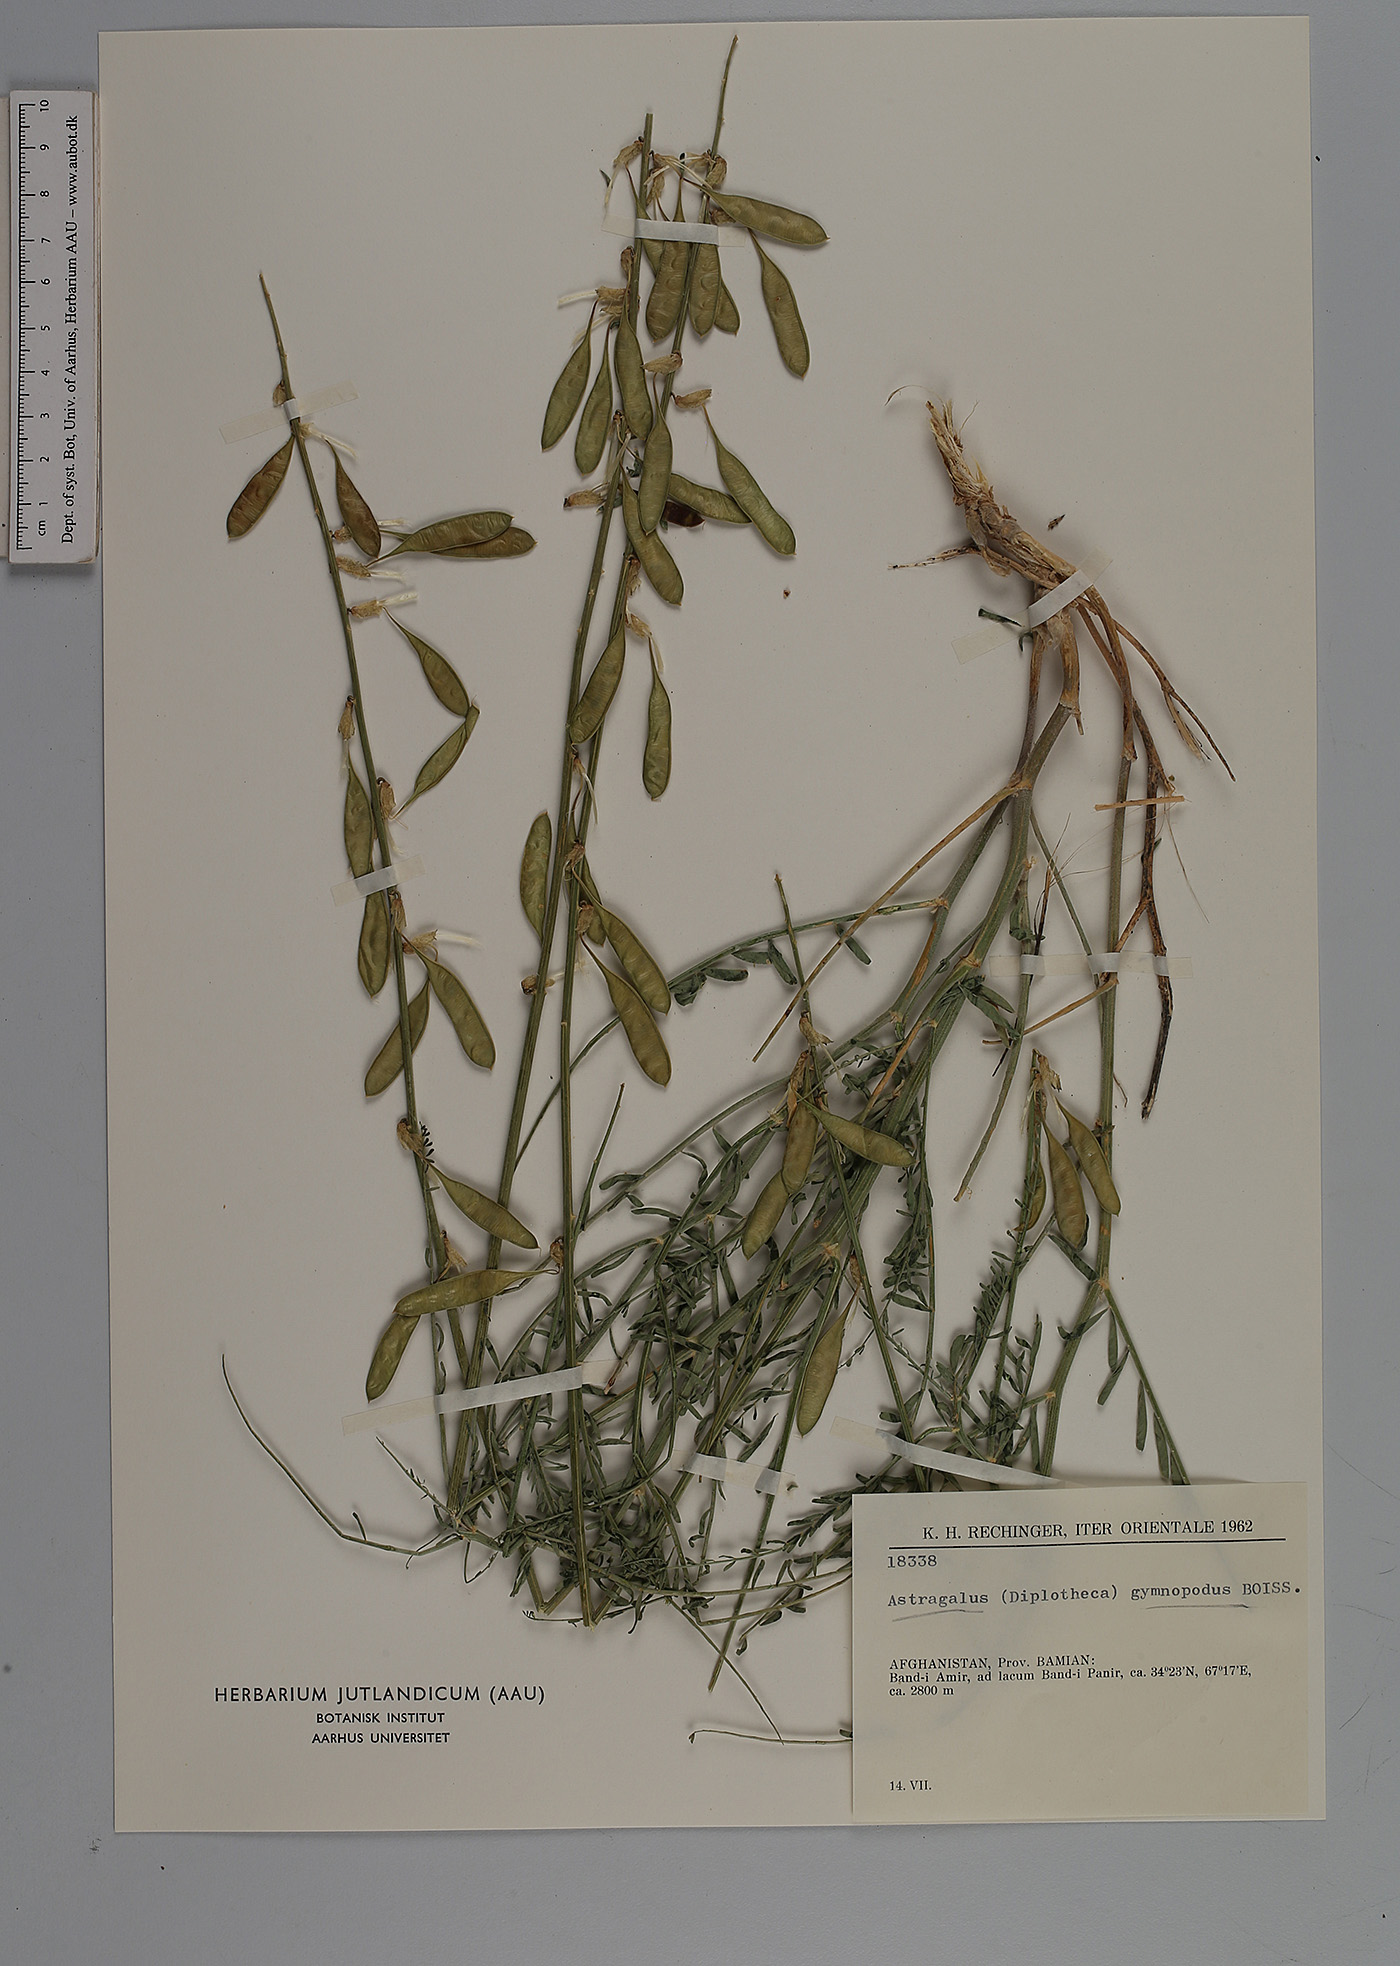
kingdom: Plantae
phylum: Tracheophyta
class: Magnoliopsida
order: Fabales
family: Fabaceae
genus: Astragalus
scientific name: Astragalus gymnopodus
